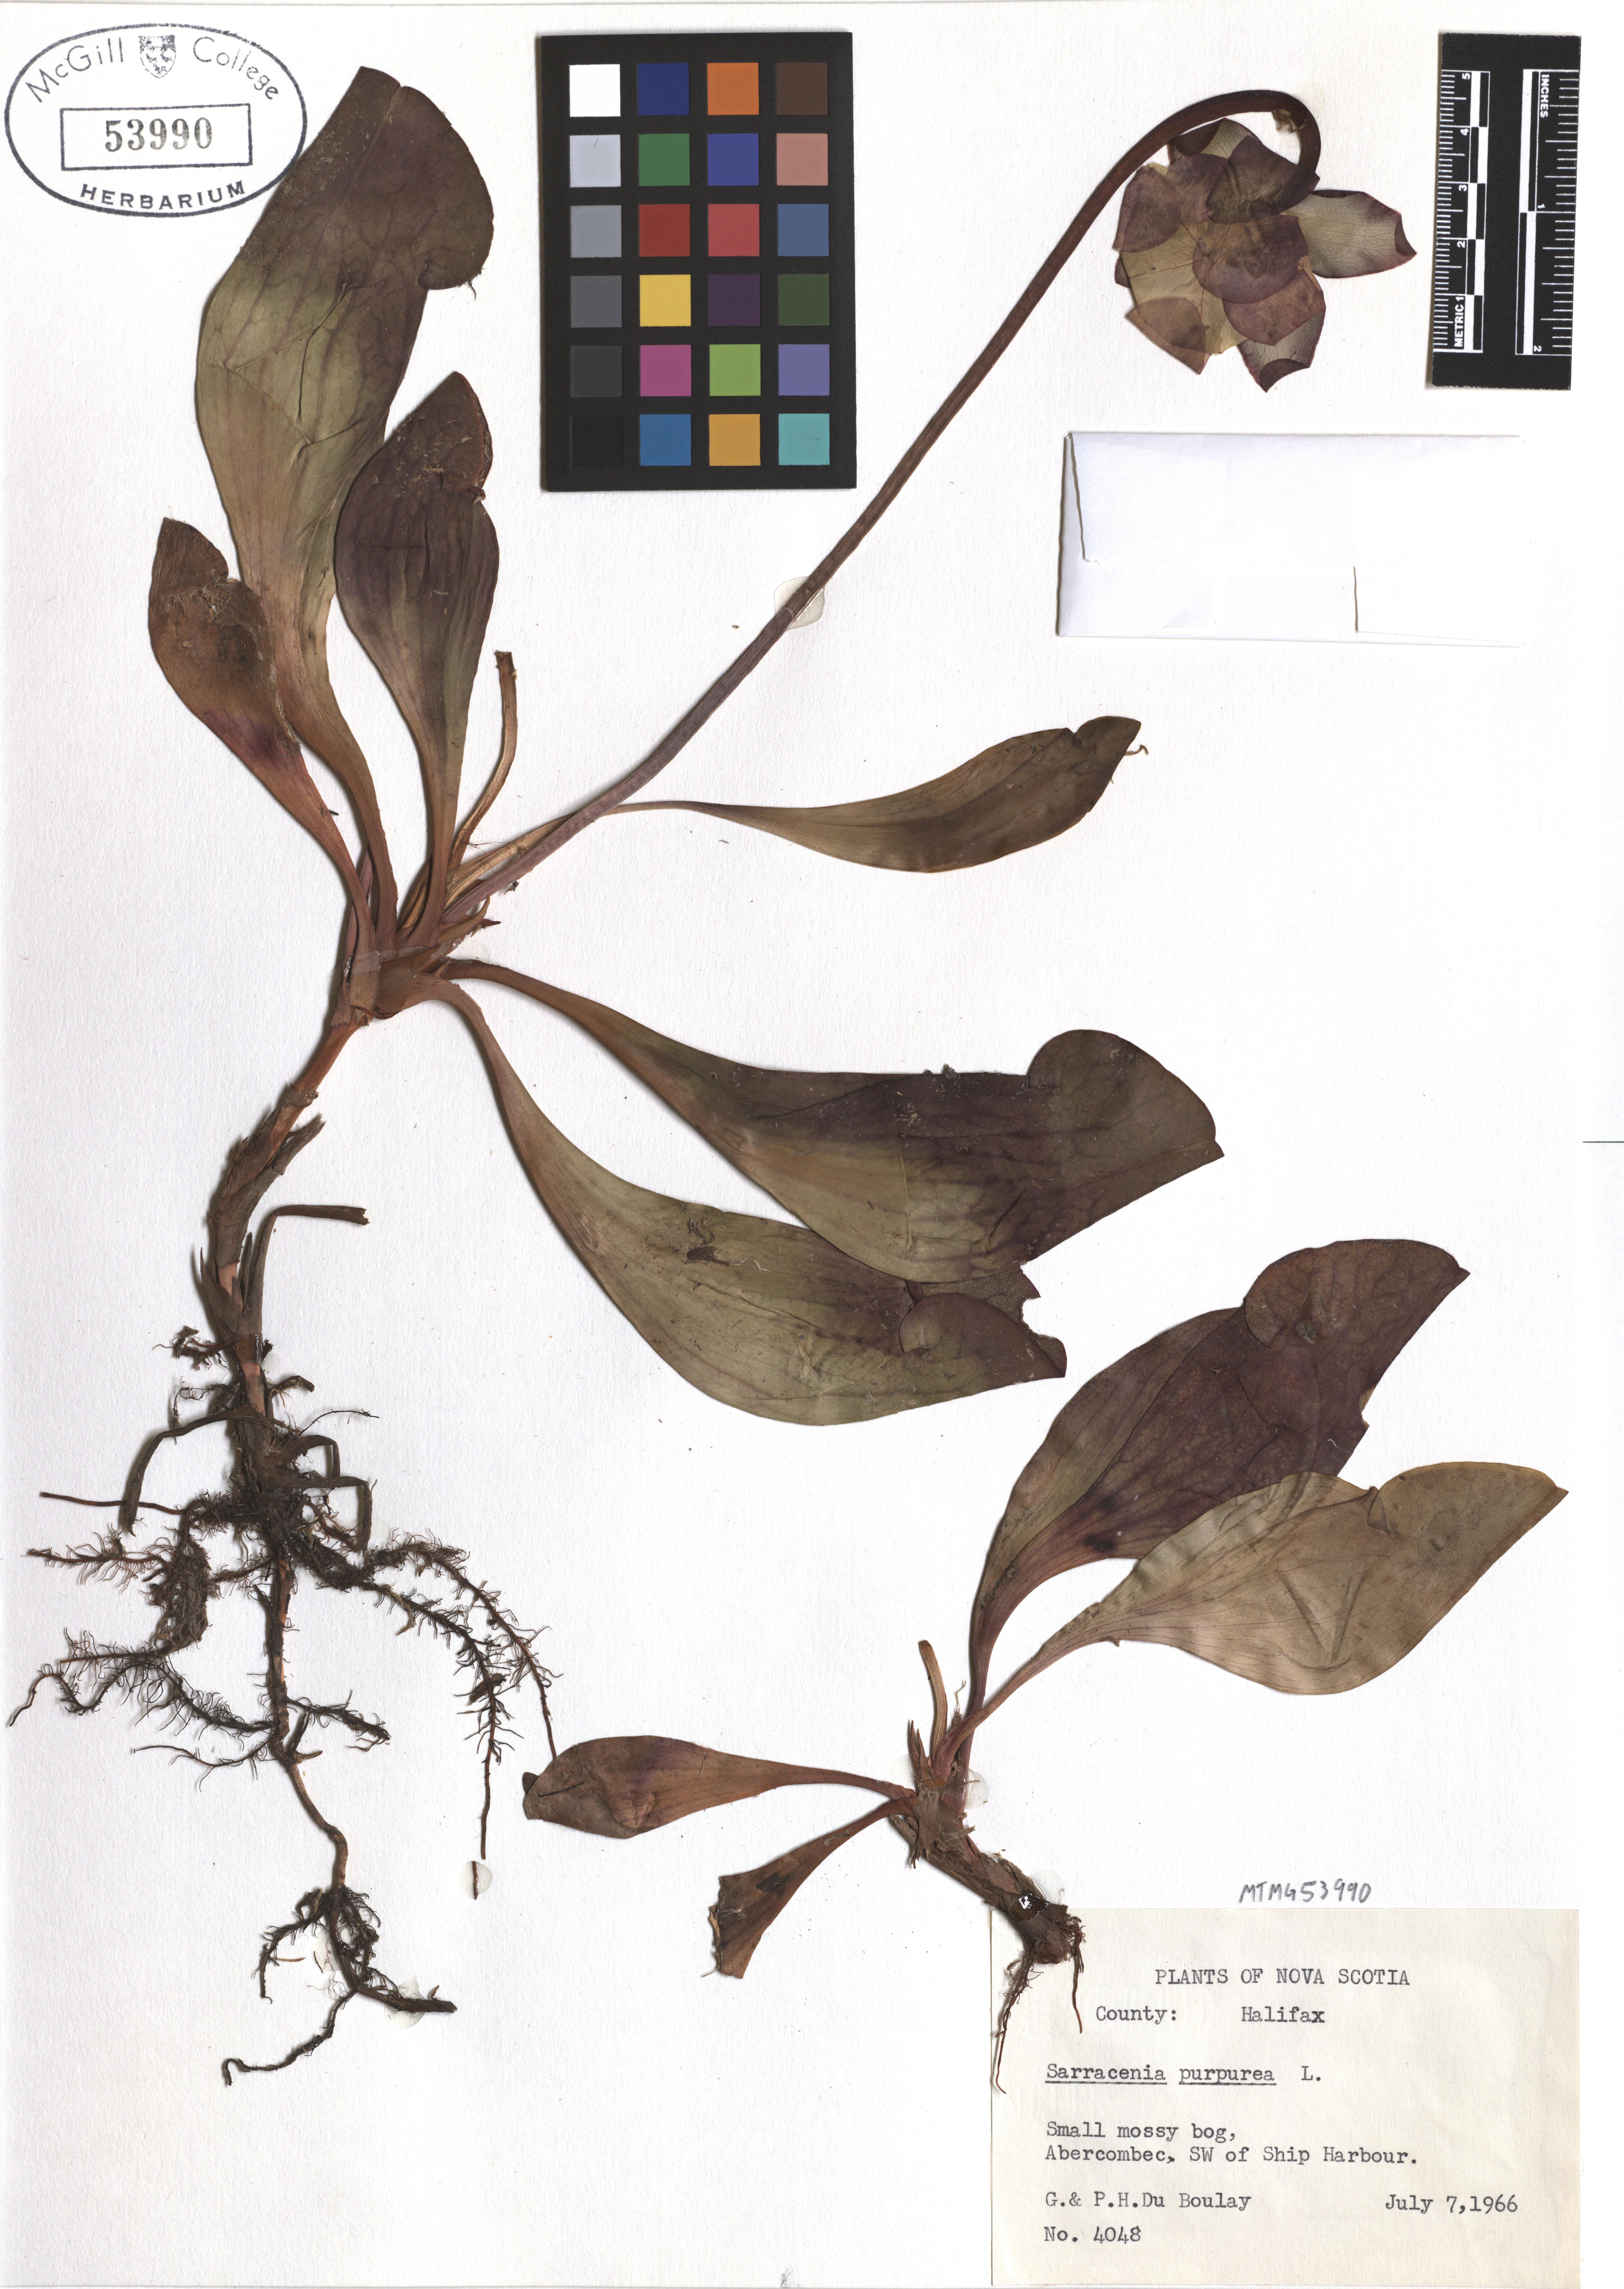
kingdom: Plantae
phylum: Tracheophyta
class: Magnoliopsida
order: Ericales
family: Sarraceniaceae
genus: Sarracenia
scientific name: Sarracenia purpurea
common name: Pitcherplant
